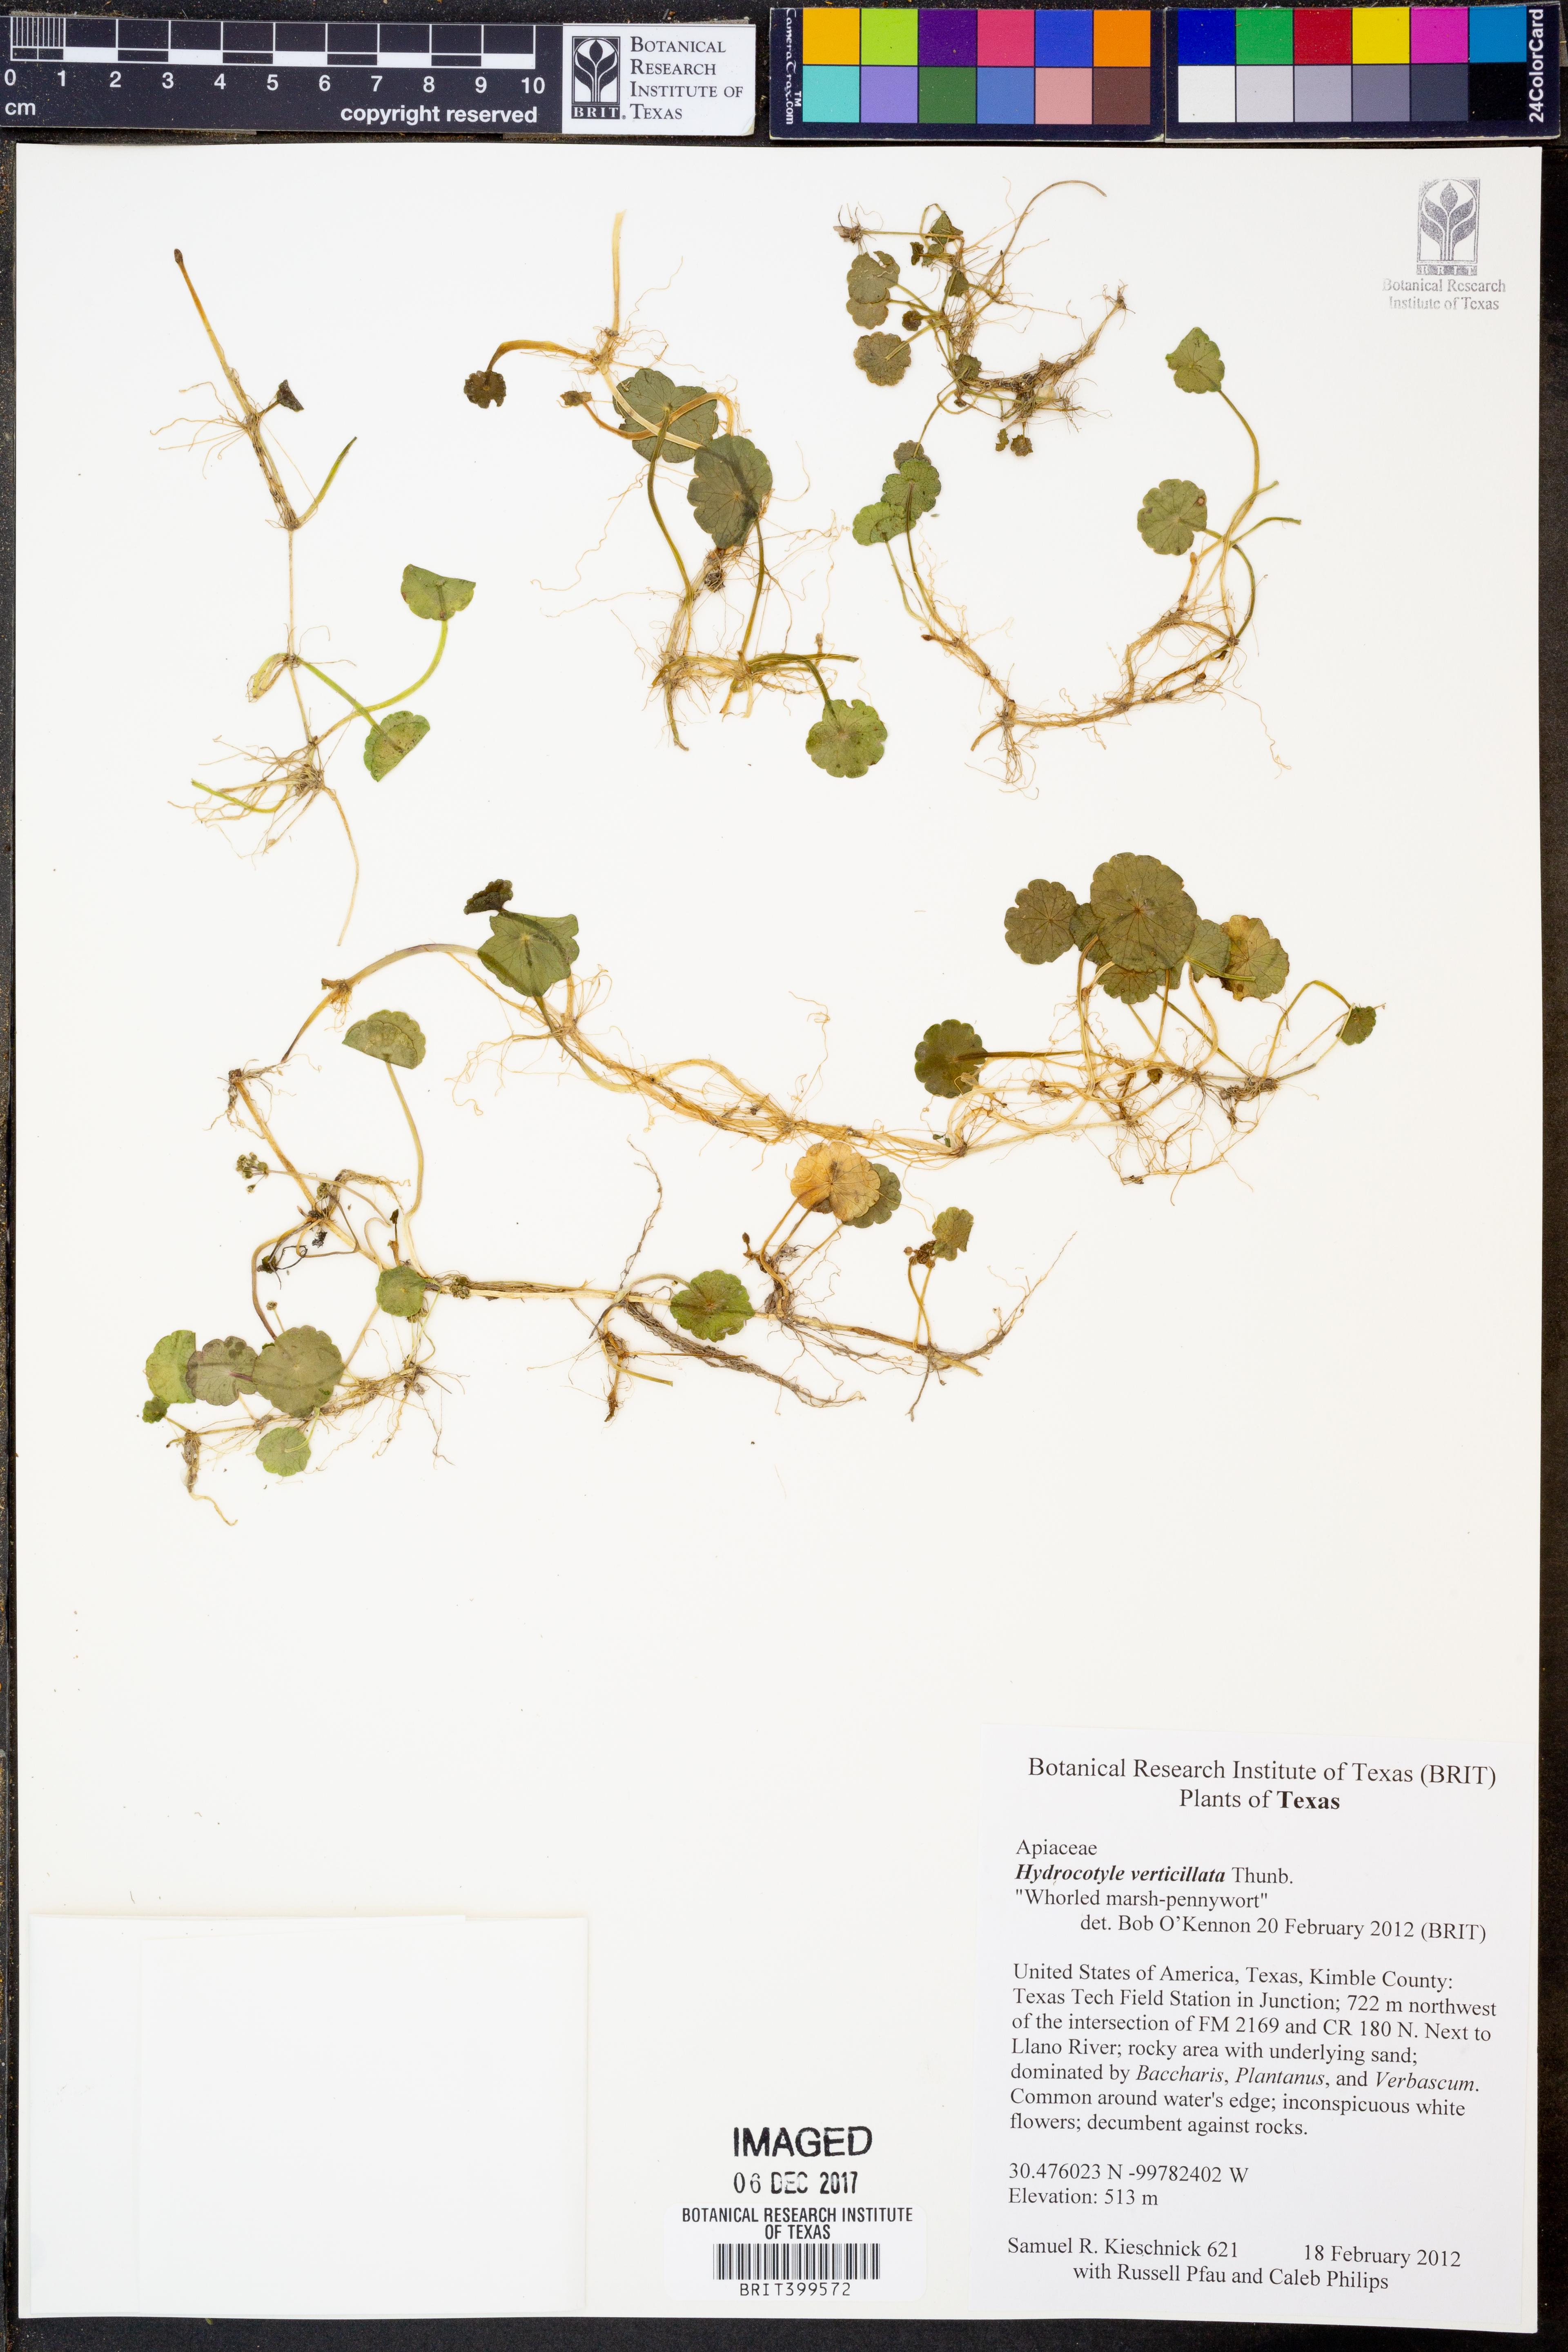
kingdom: Plantae
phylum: Tracheophyta
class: Magnoliopsida
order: Apiales
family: Araliaceae
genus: Hydrocotyle
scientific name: Hydrocotyle verticillata
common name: Whorled marshpennywort
